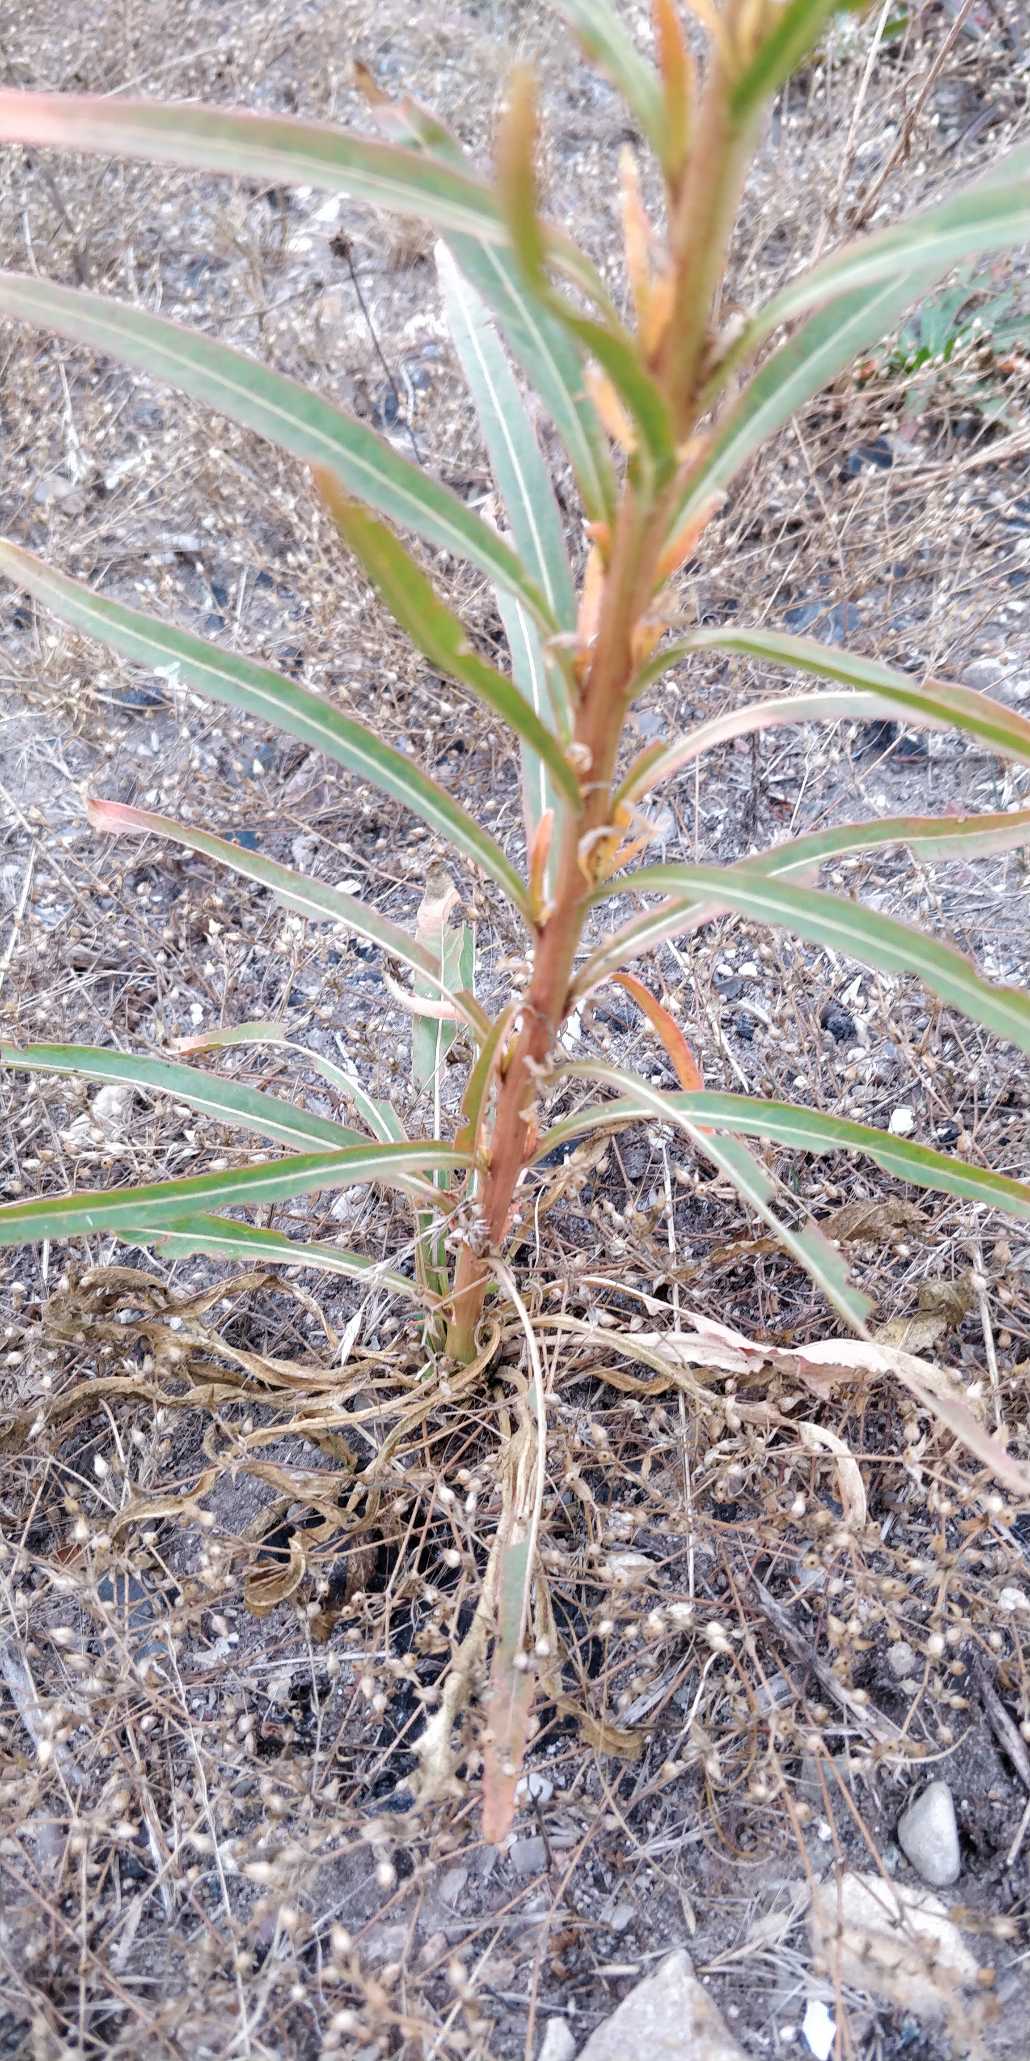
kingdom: Plantae
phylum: Tracheophyta
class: Magnoliopsida
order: Brassicales
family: Resedaceae
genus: Reseda
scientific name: Reseda luteola
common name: Farve-reseda
